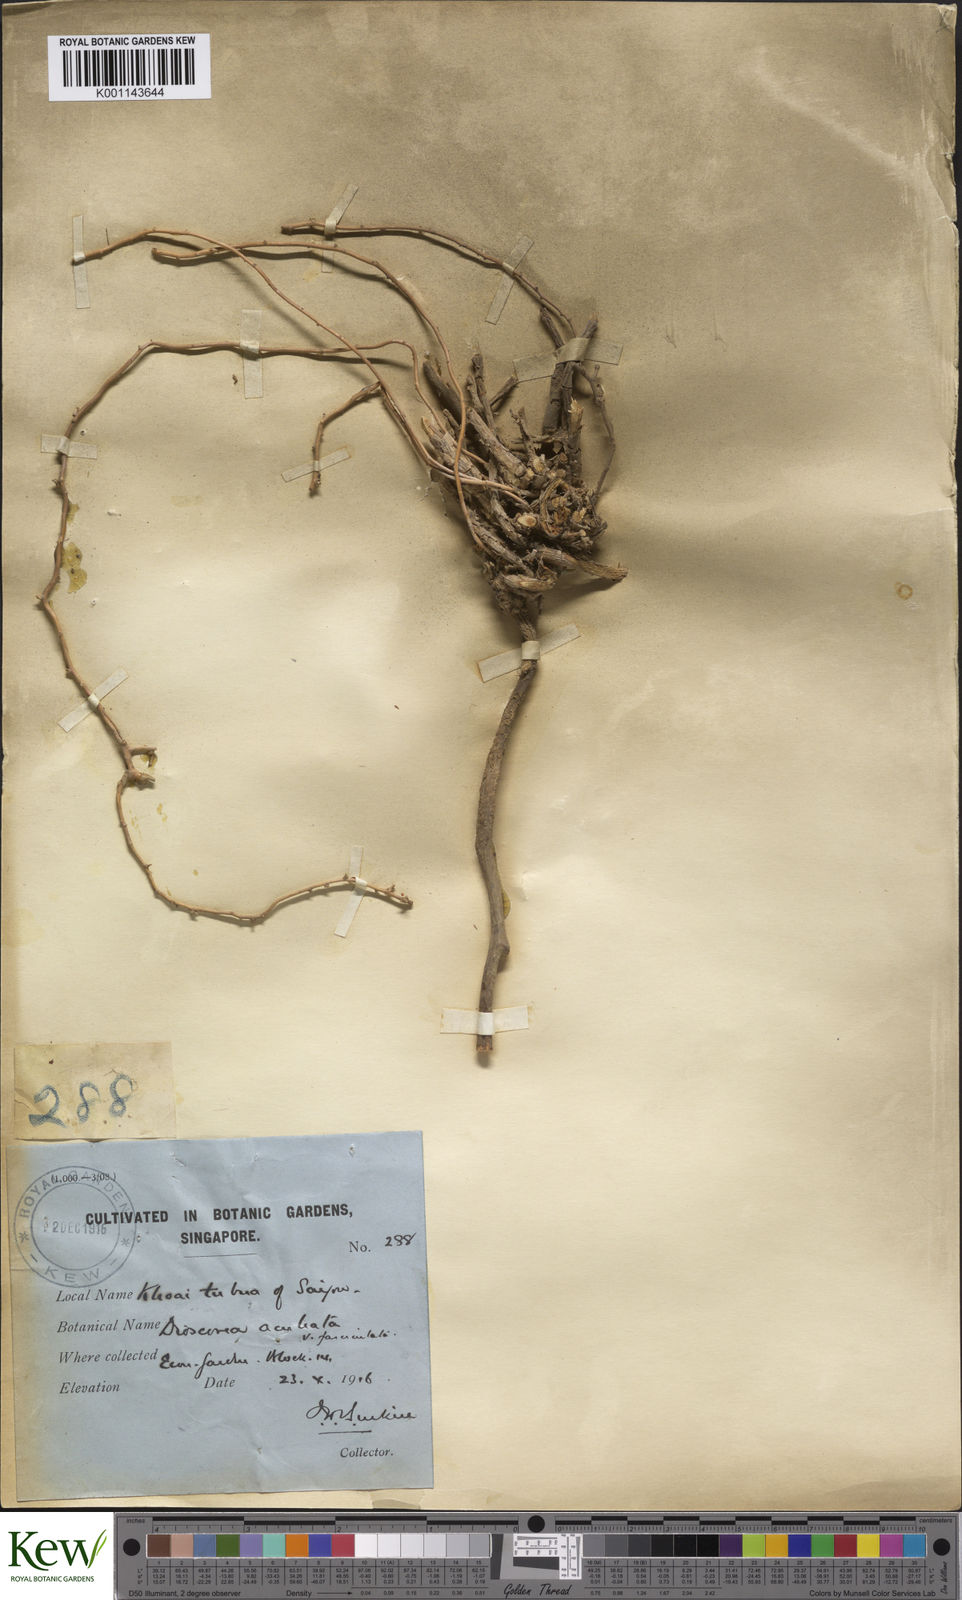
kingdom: Plantae
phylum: Tracheophyta
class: Liliopsida
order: Dioscoreales
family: Dioscoreaceae
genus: Dioscorea
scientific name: Dioscorea esculenta
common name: Chinese yam
